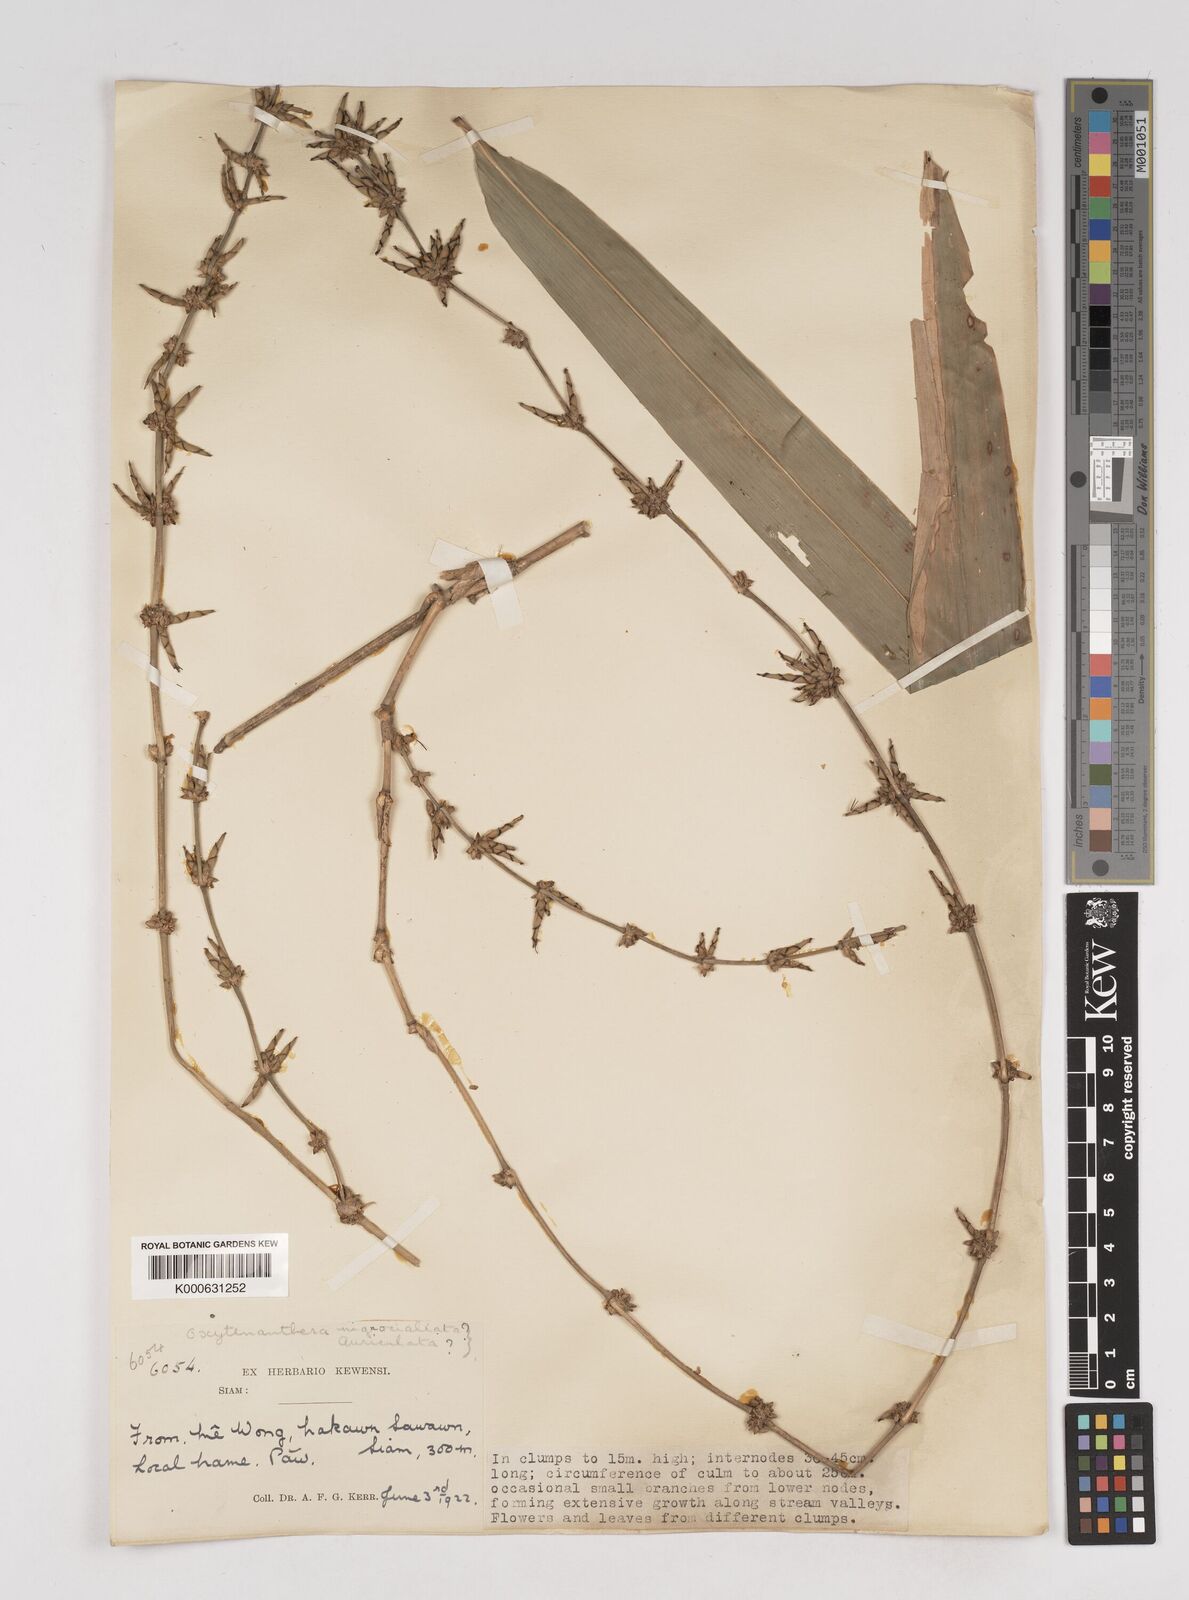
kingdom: Plantae
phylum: Tracheophyta
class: Liliopsida
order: Poales
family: Poaceae
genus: Gigantochloa
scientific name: Gigantochloa
